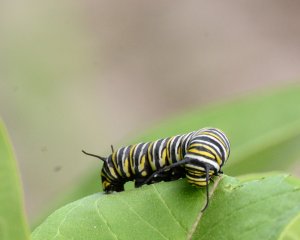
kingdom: Animalia
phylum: Arthropoda
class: Insecta
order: Lepidoptera
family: Nymphalidae
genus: Danaus
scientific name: Danaus plexippus
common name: Monarch
